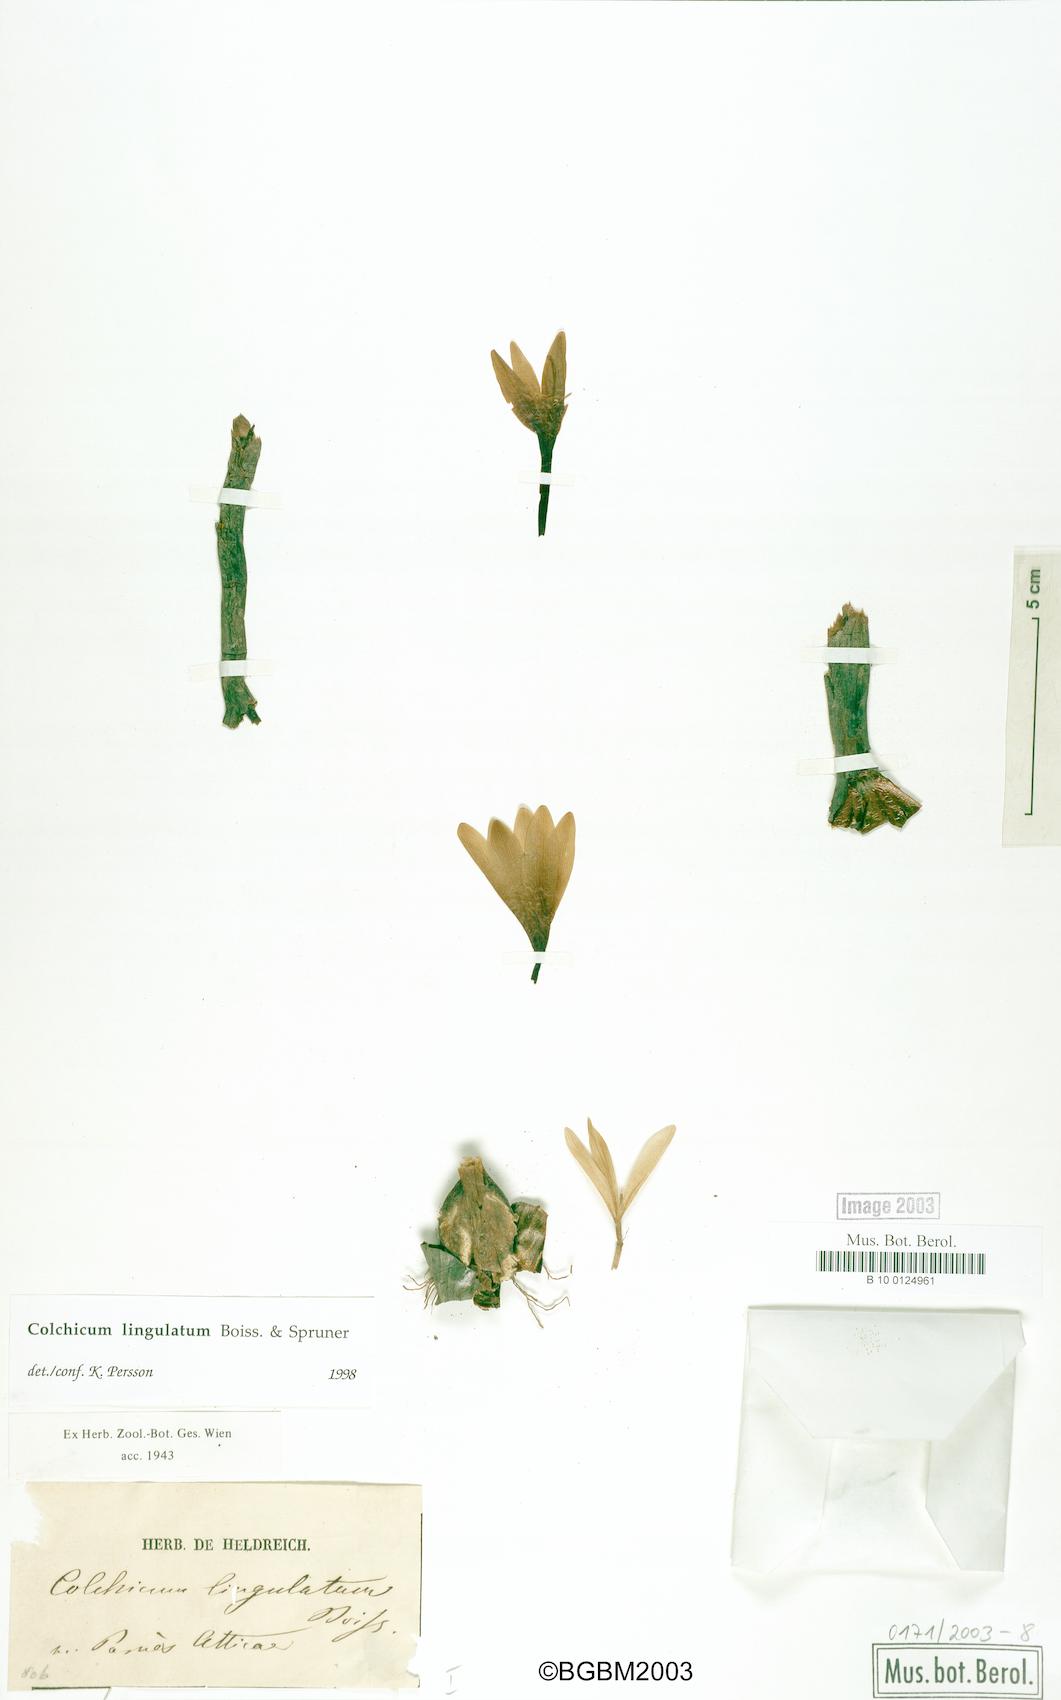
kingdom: Plantae
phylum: Tracheophyta
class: Liliopsida
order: Liliales
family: Colchicaceae
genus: Colchicum
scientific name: Colchicum lingulatum
